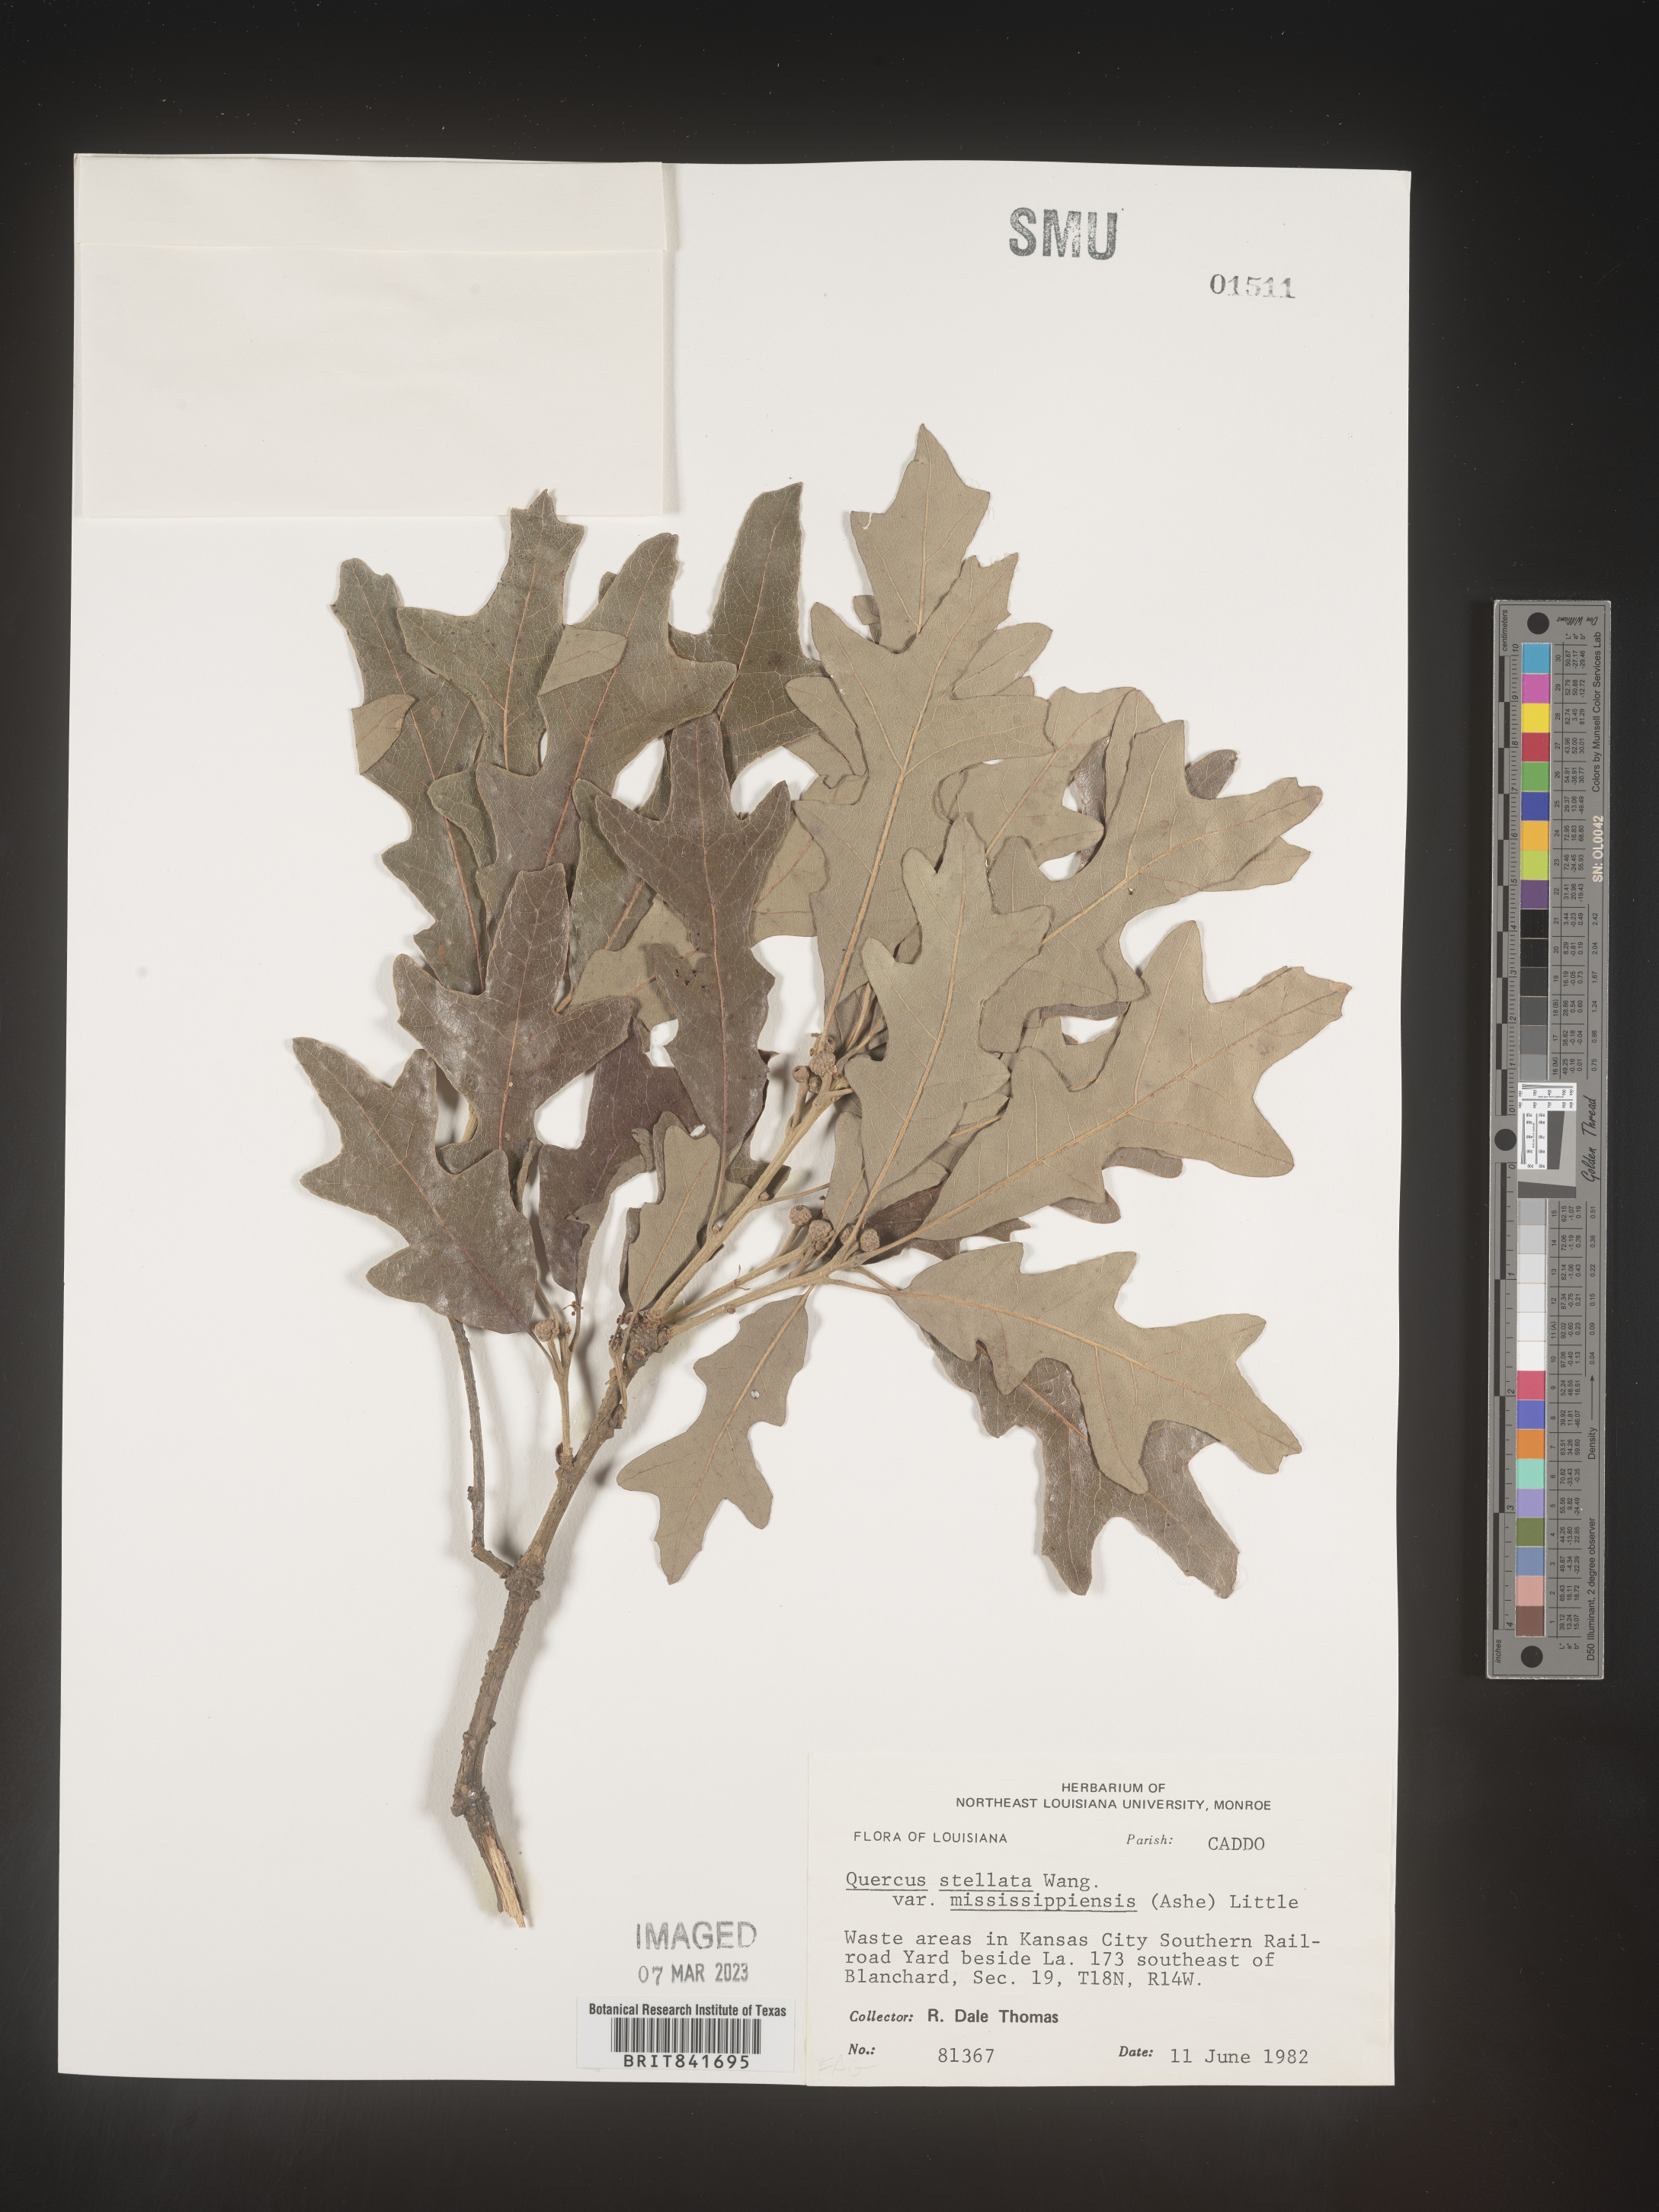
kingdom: Plantae
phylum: Tracheophyta
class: Magnoliopsida
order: Fagales
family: Fagaceae
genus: Quercus
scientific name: Quercus stellata
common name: Post oak
